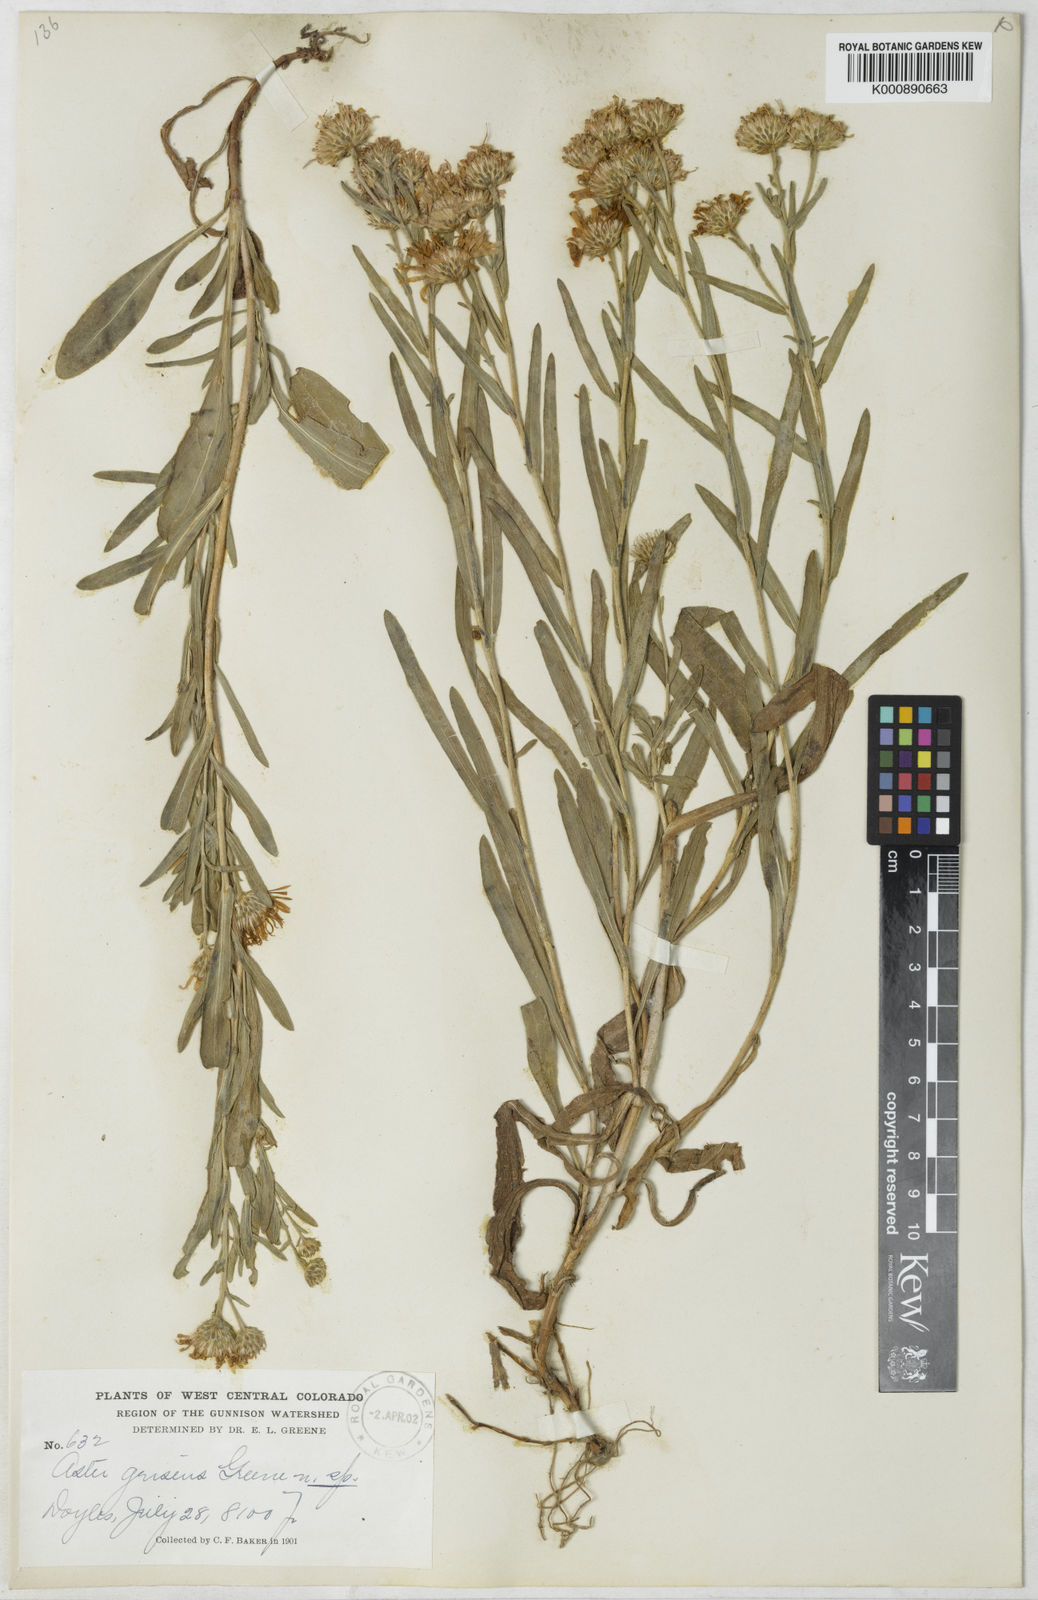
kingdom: Plantae
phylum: Tracheophyta
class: Magnoliopsida
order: Asterales
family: Asteraceae
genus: Symphyotrichum
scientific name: Symphyotrichum ascendens
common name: Intermountain aster
